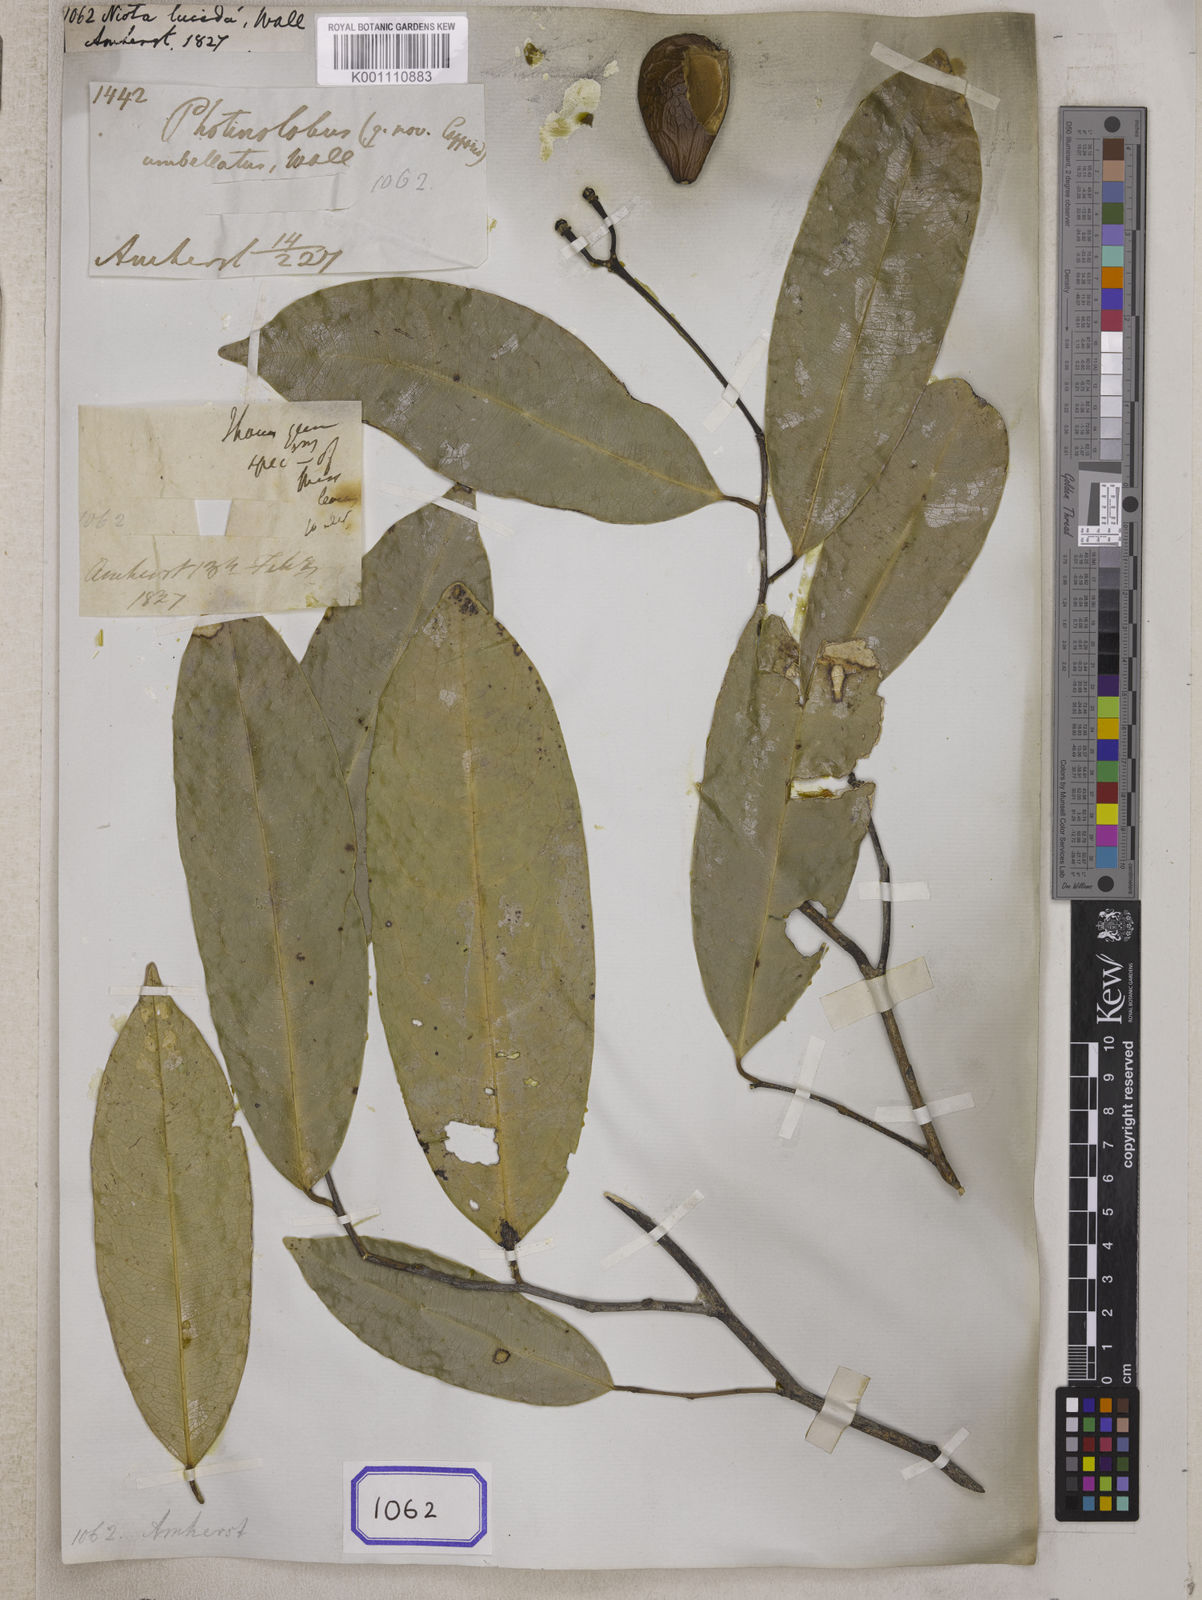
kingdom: Plantae
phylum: Tracheophyta
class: Magnoliopsida
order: Sapindales
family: Simaroubaceae
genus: Samadera
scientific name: Samadera indica
